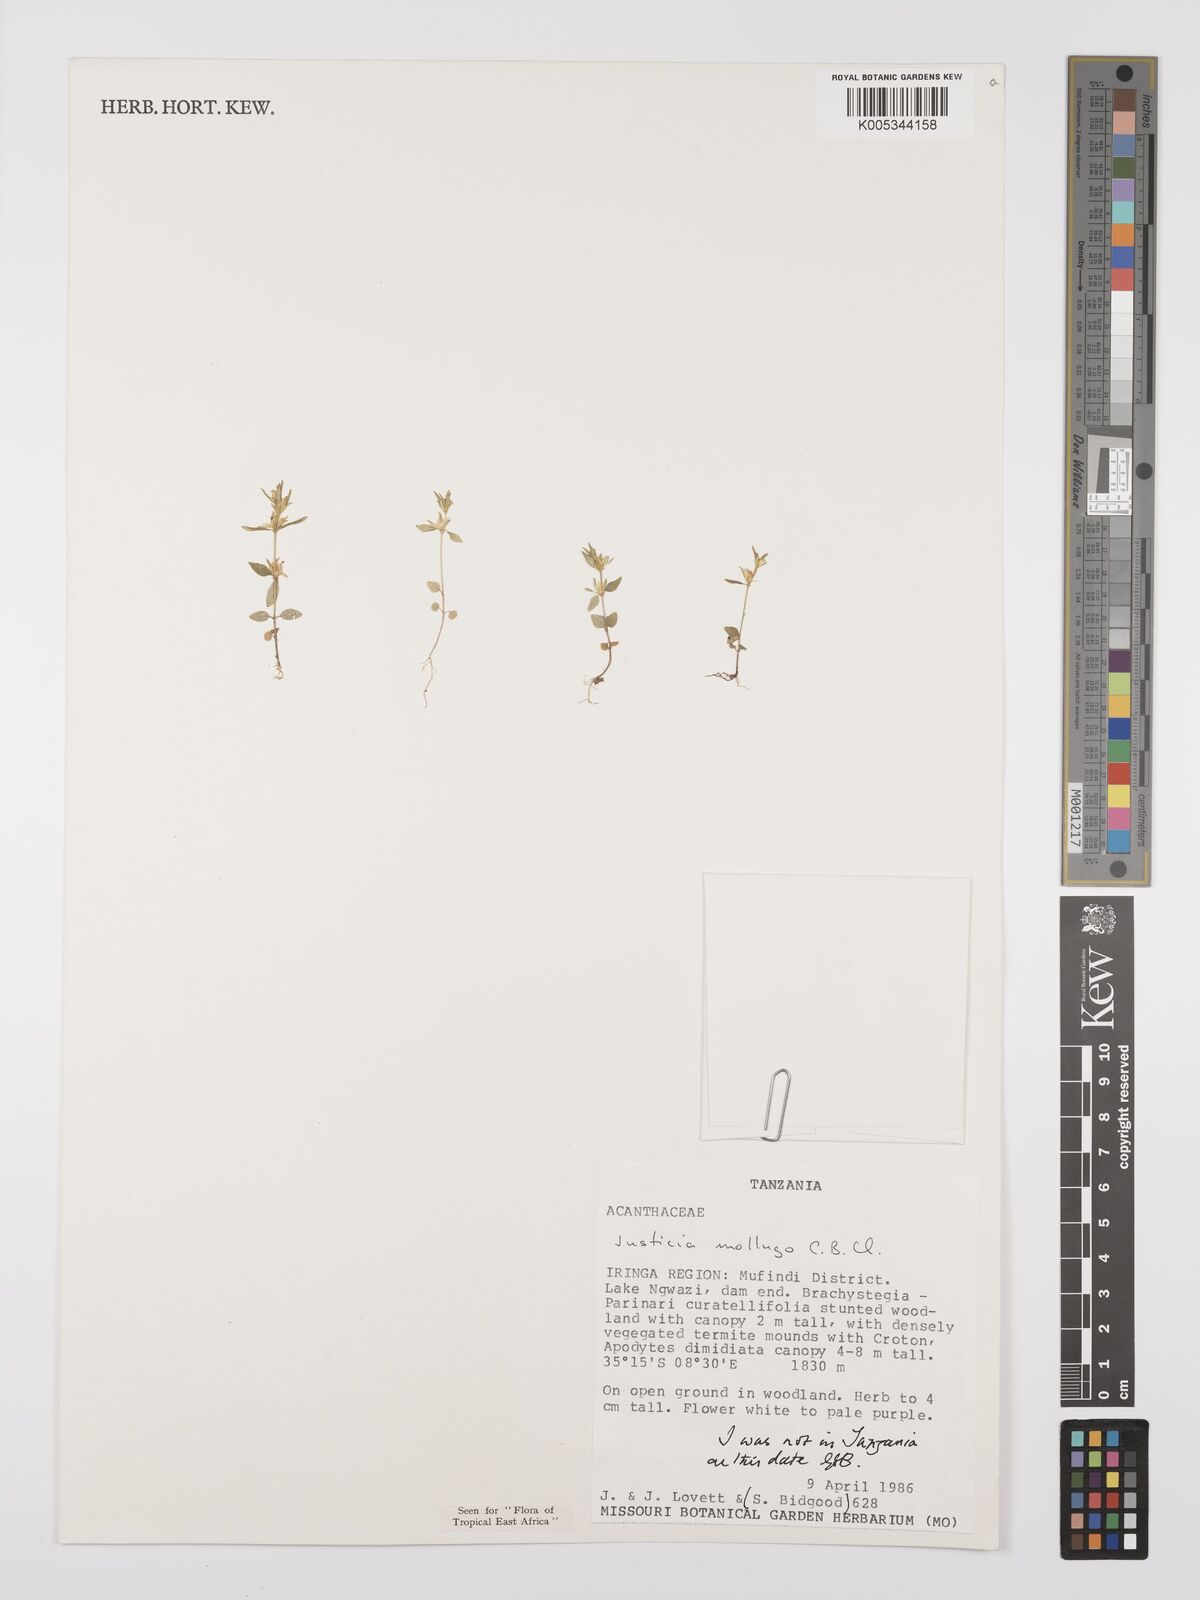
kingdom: Plantae
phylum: Tracheophyta
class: Magnoliopsida
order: Lamiales
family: Acanthaceae
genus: Justicia
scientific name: Justicia mollugo
